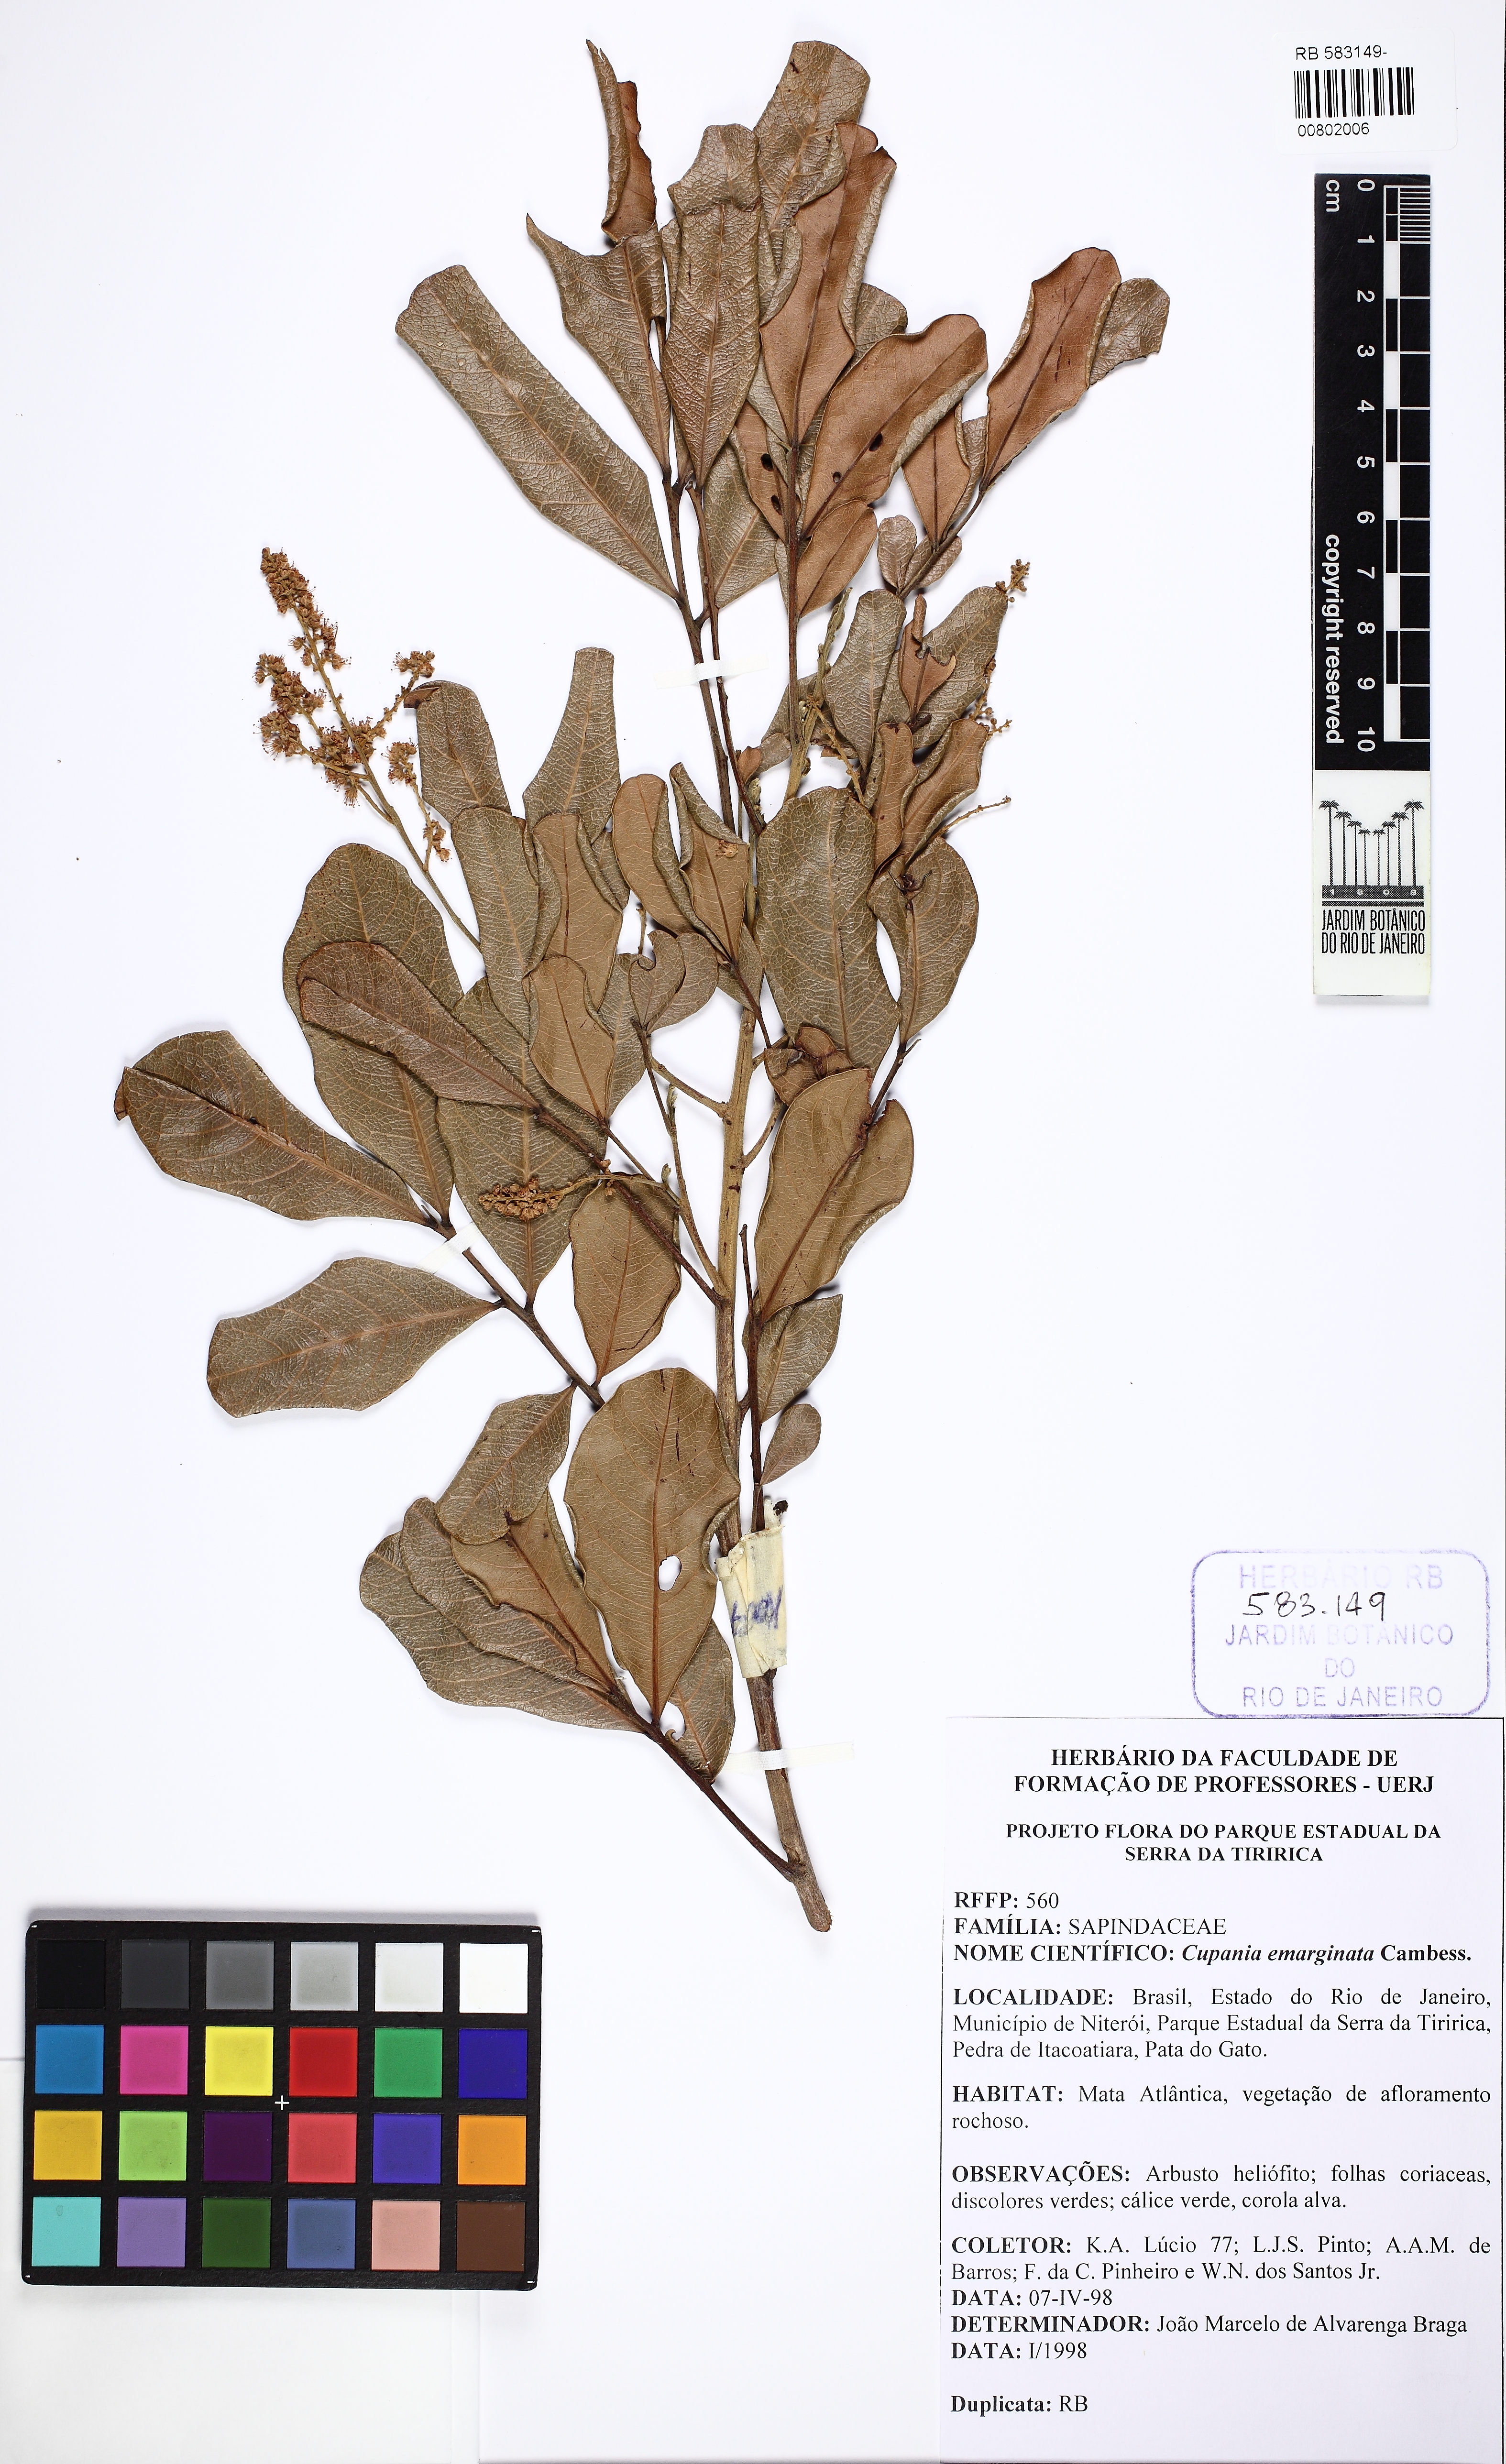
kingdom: Plantae
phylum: Tracheophyta
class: Magnoliopsida
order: Sapindales
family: Sapindaceae
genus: Cupania
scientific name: Cupania emarginata
